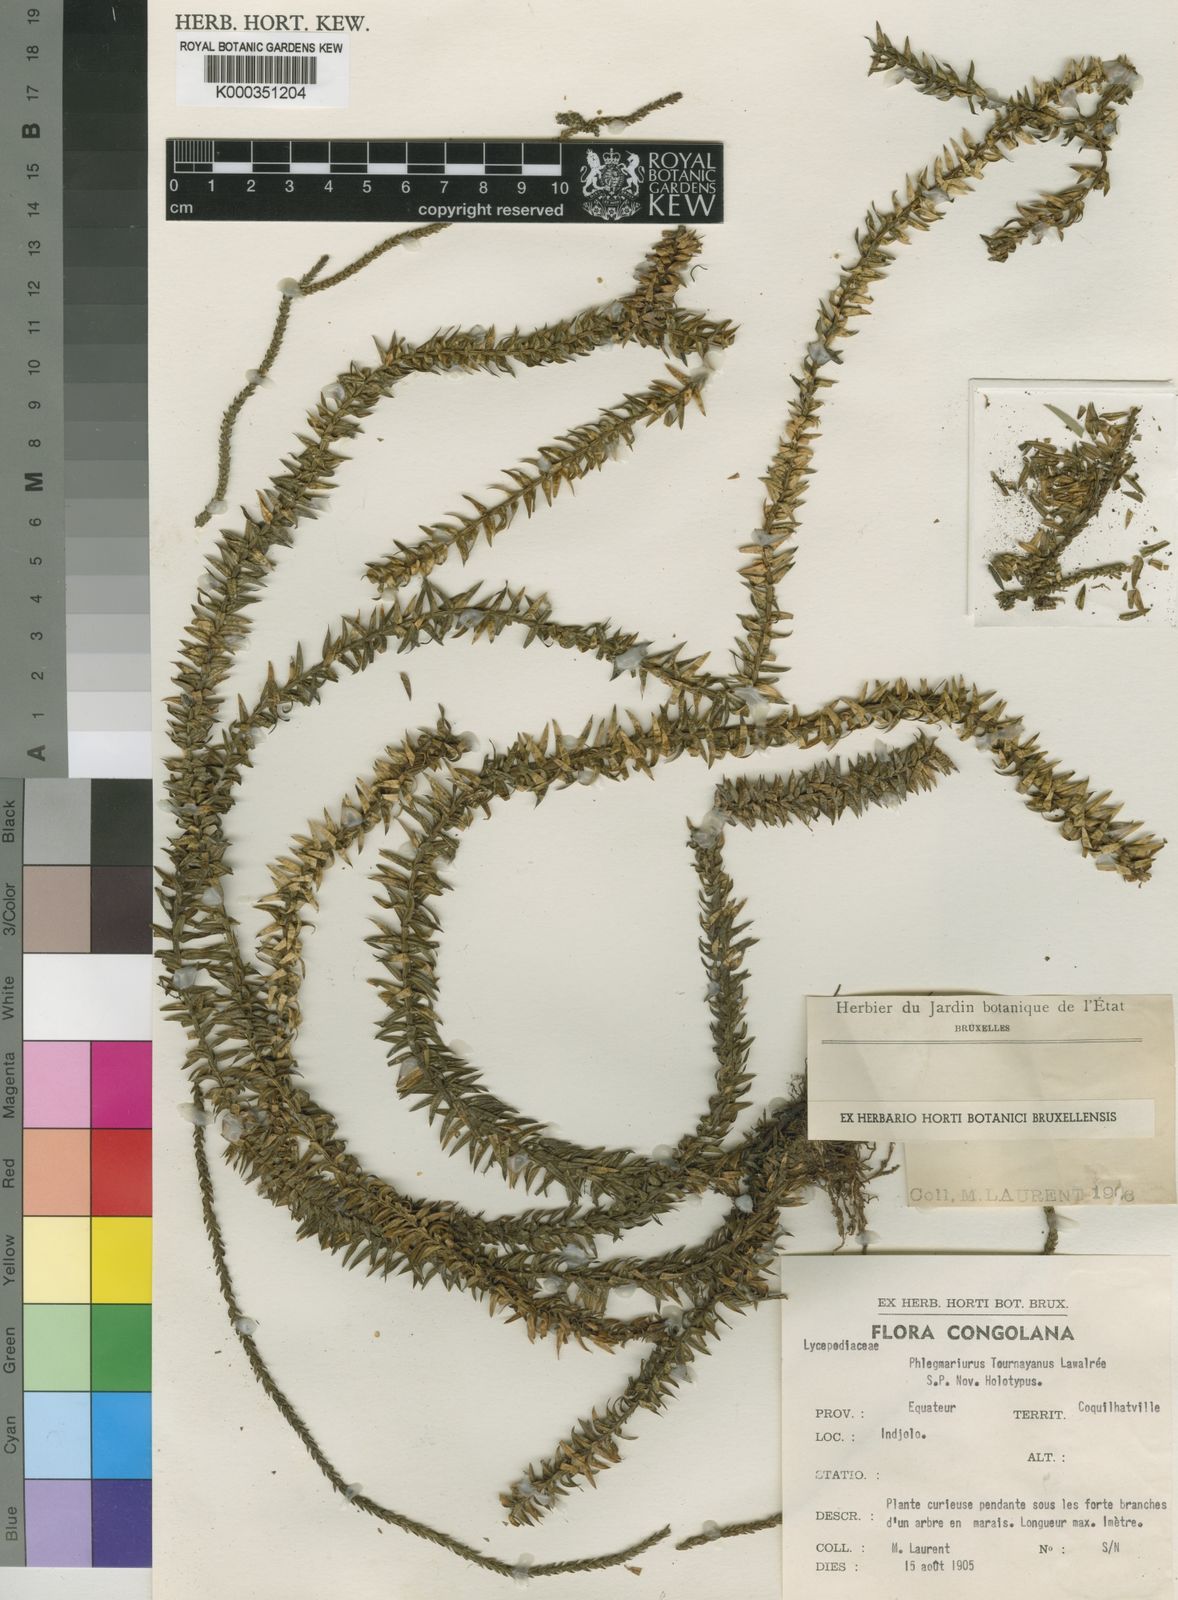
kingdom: Plantae
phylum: Tracheophyta
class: Lycopodiopsida
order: Lycopodiales
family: Lycopodiaceae
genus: Lycopodium
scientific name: Lycopodium
